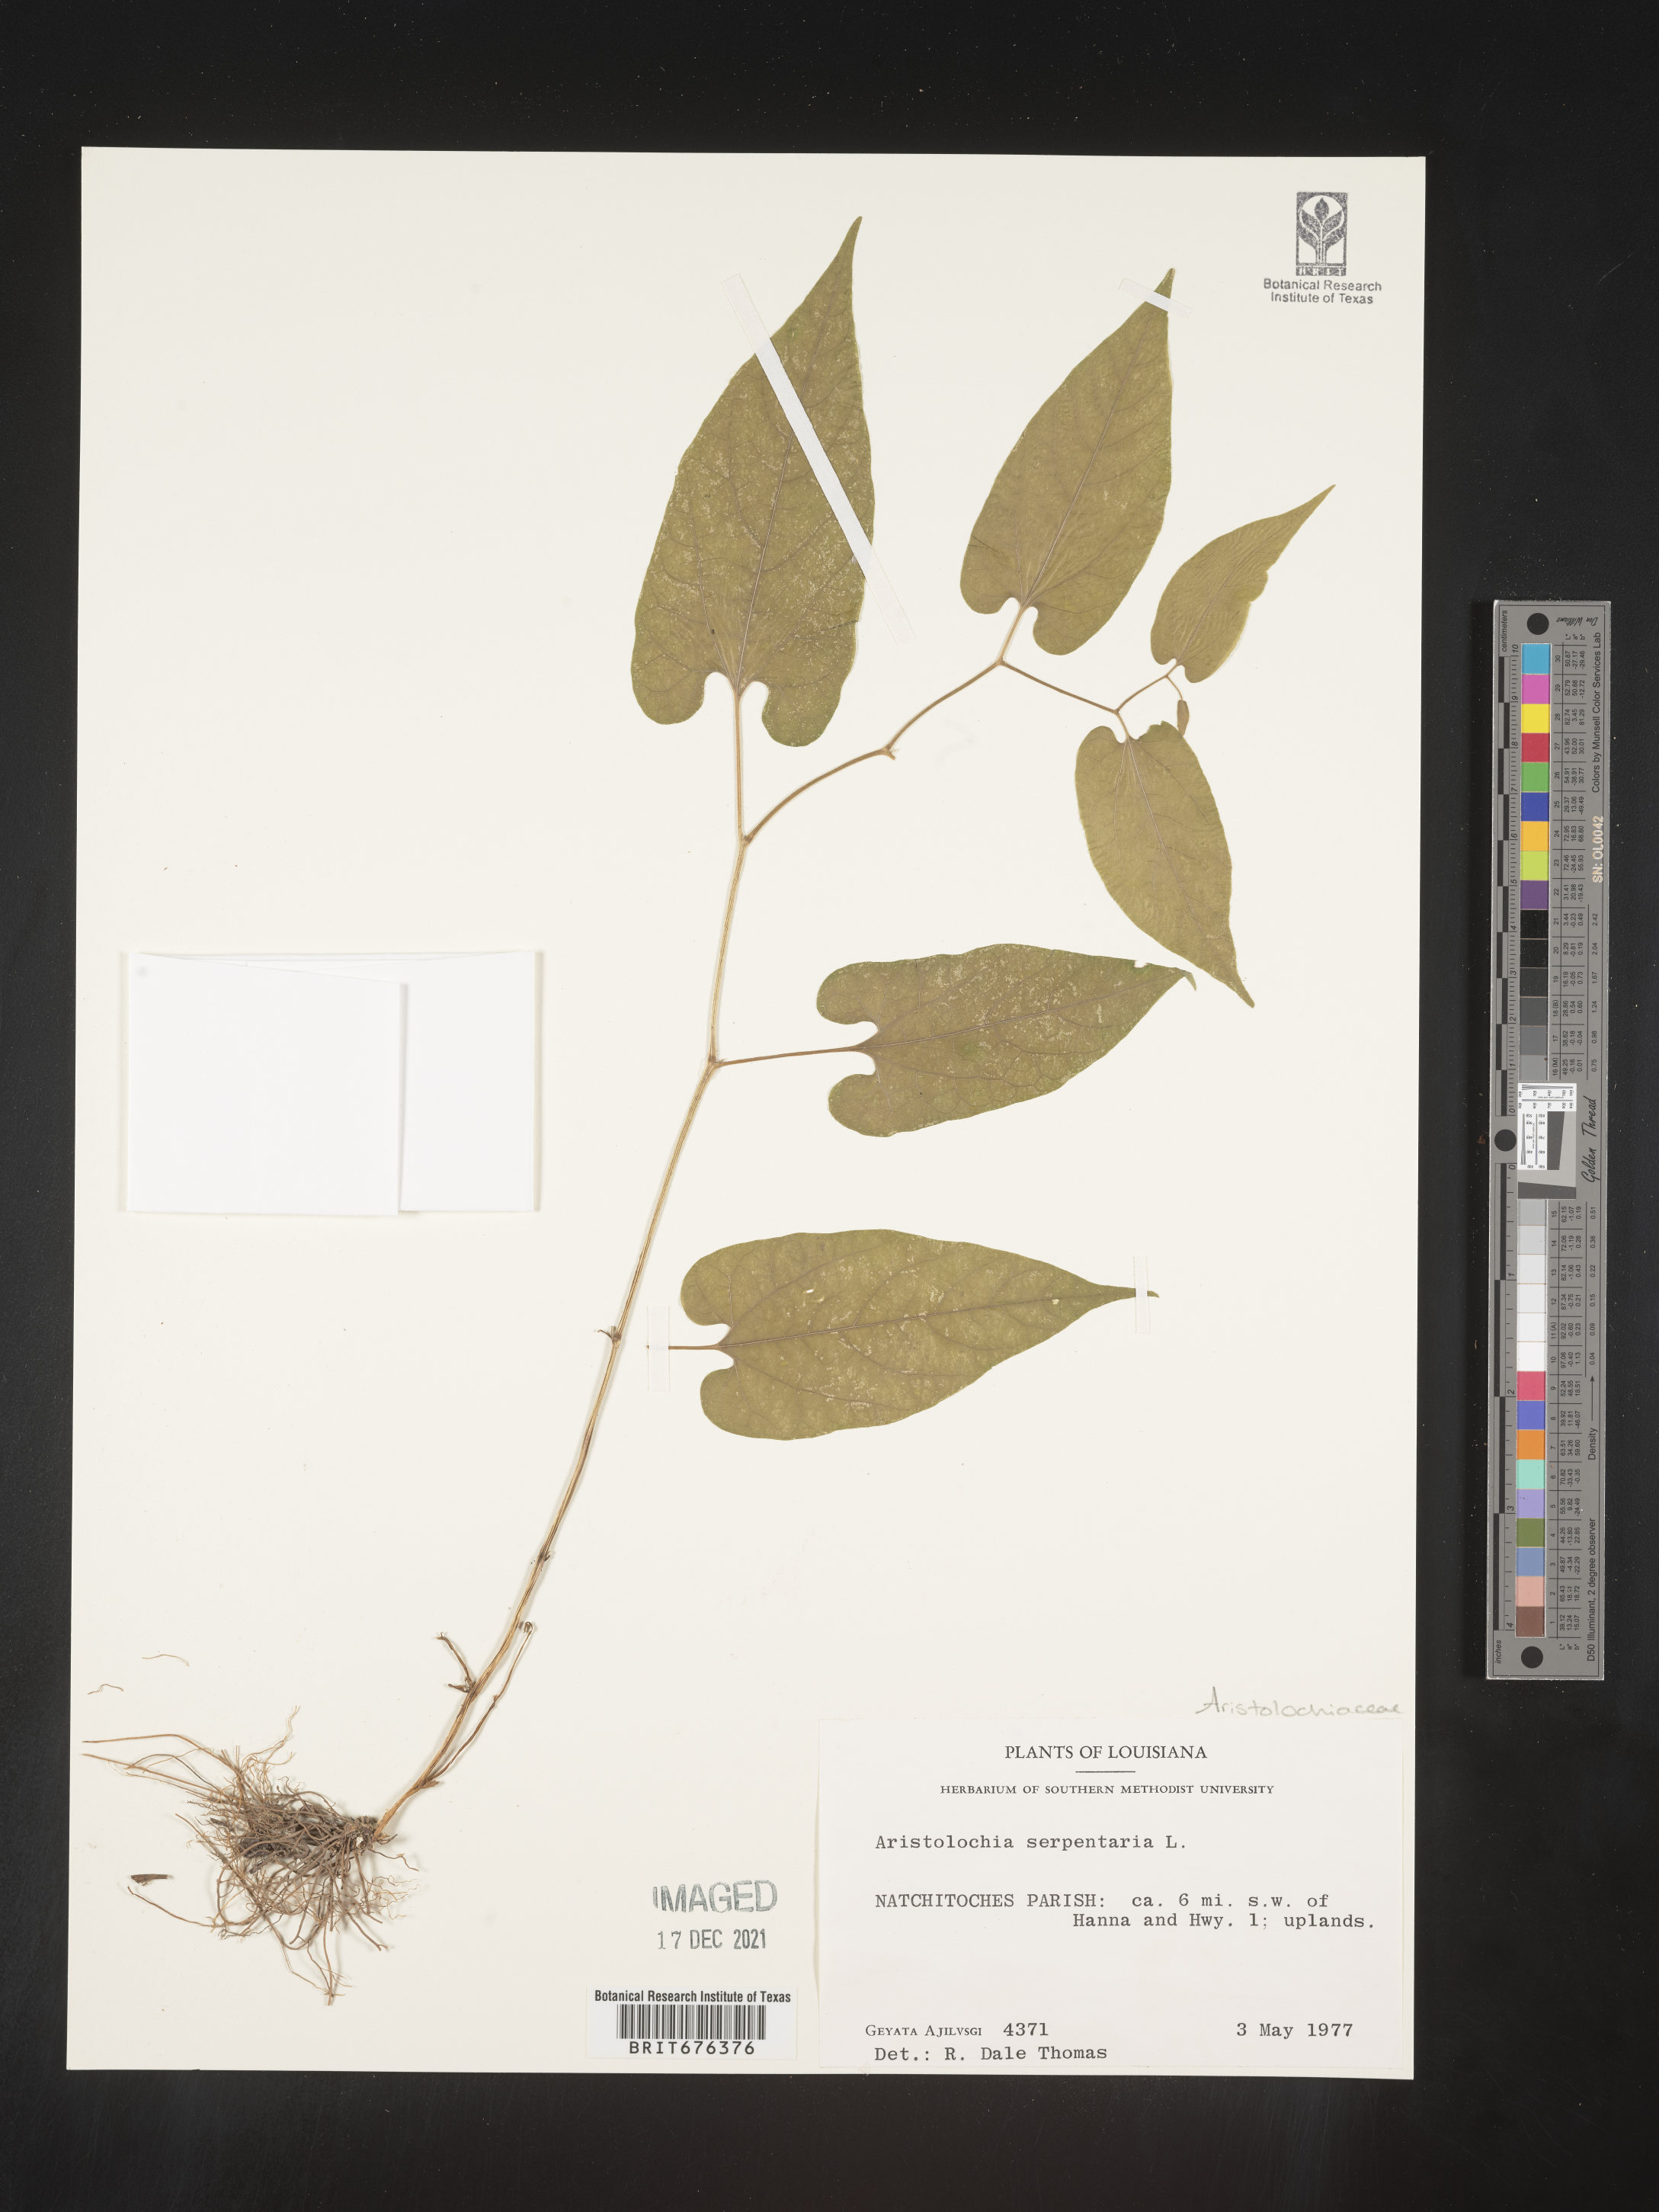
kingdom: Plantae
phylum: Tracheophyta
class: Magnoliopsida
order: Piperales
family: Aristolochiaceae
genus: Aristolochia
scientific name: Aristolochia
